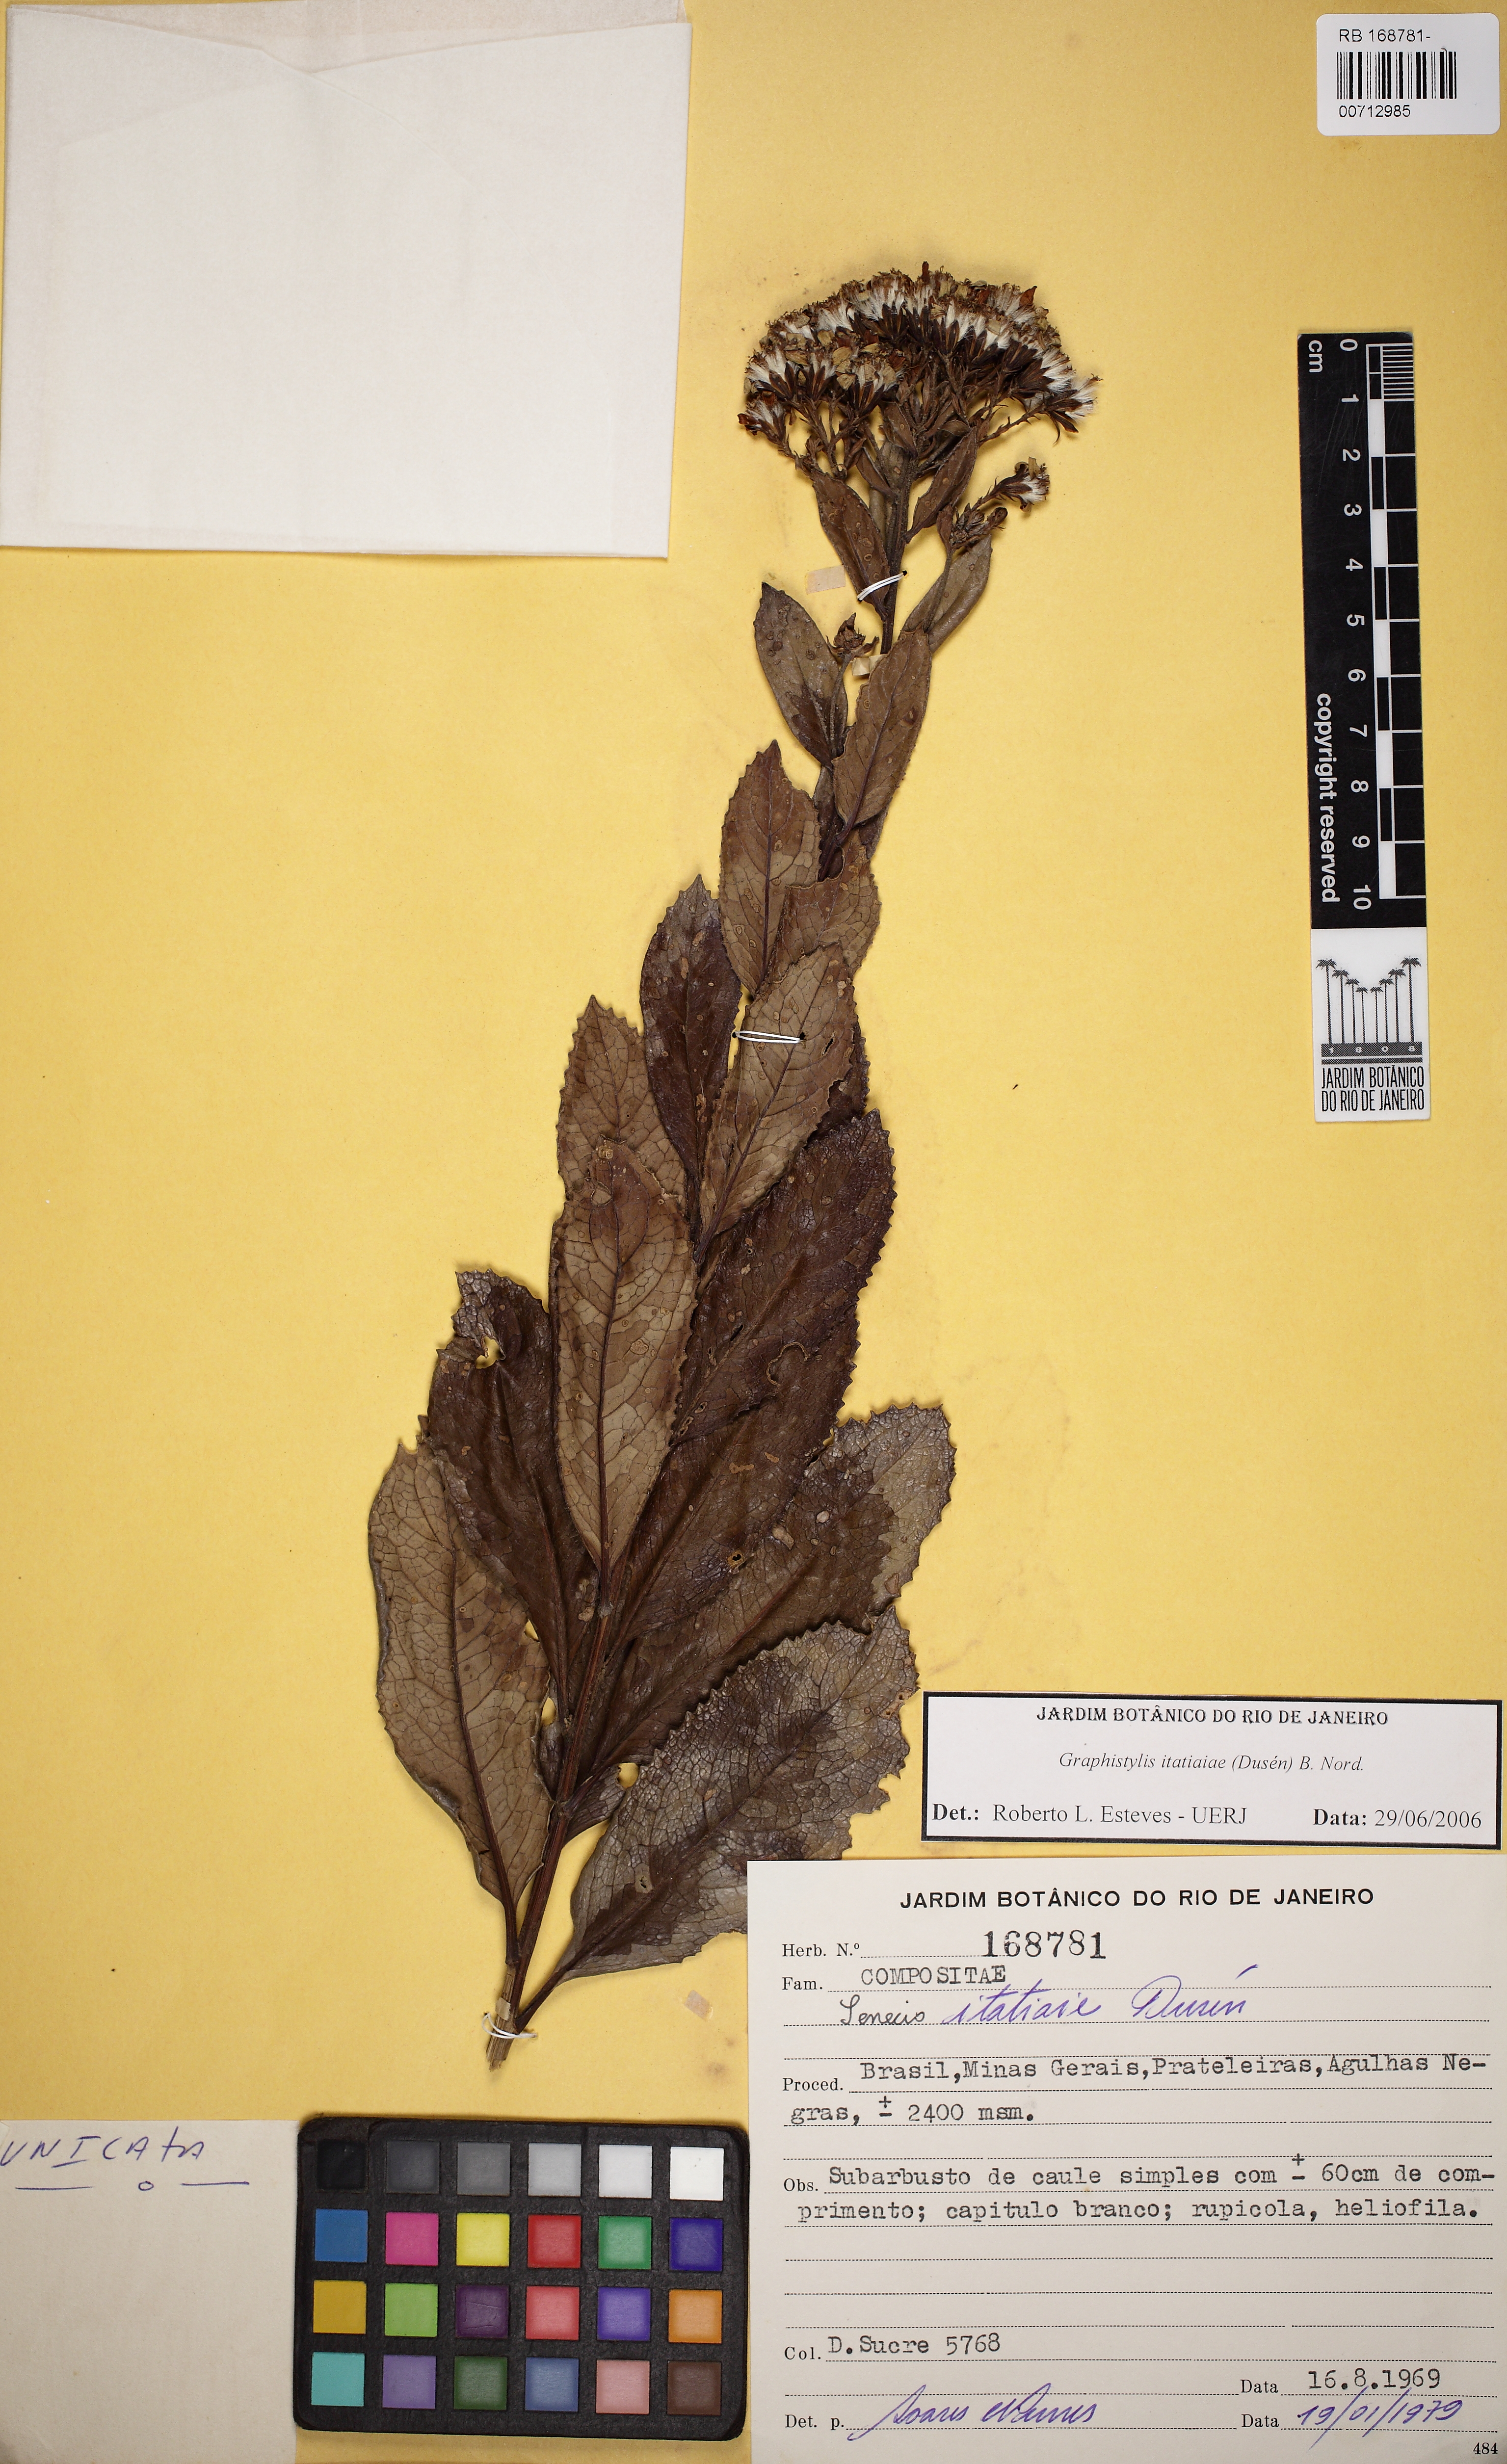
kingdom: Plantae
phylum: Tracheophyta
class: Magnoliopsida
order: Asterales
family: Asteraceae
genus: Graphistylis
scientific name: Graphistylis itatiaiae
